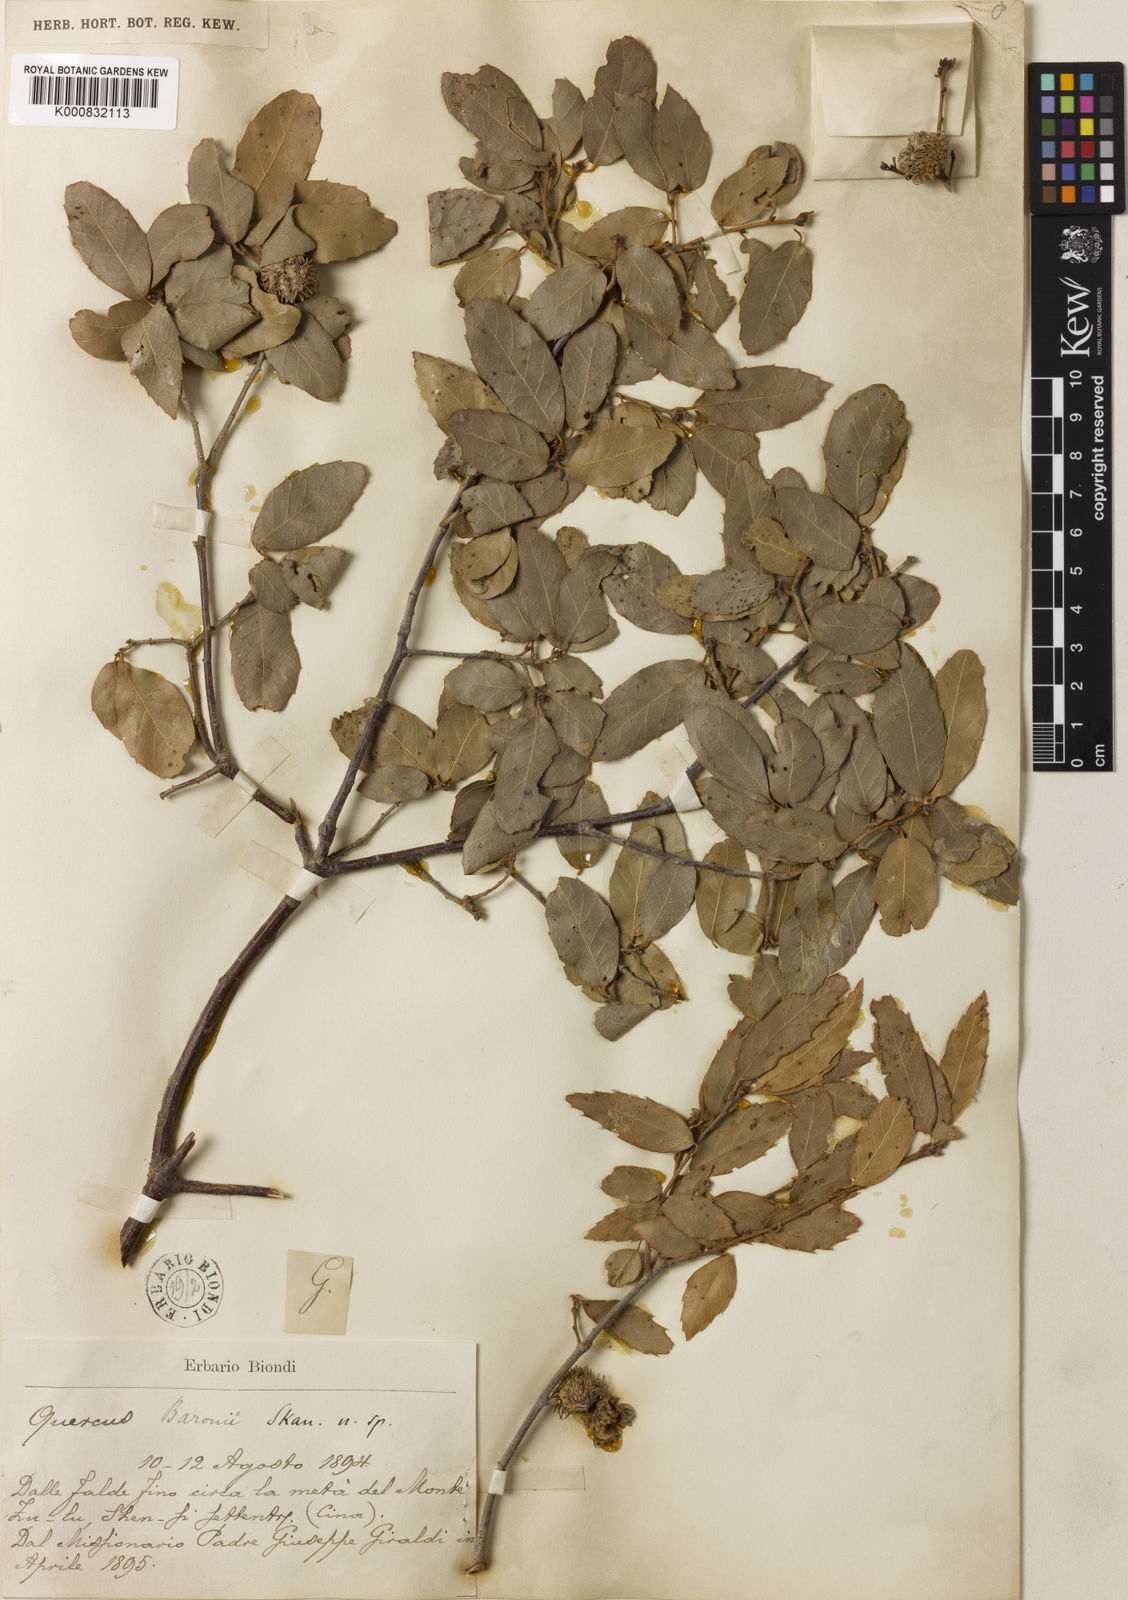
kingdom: Plantae
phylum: Tracheophyta
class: Magnoliopsida
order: Fagales
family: Fagaceae
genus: Quercus
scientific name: Quercus baronii
